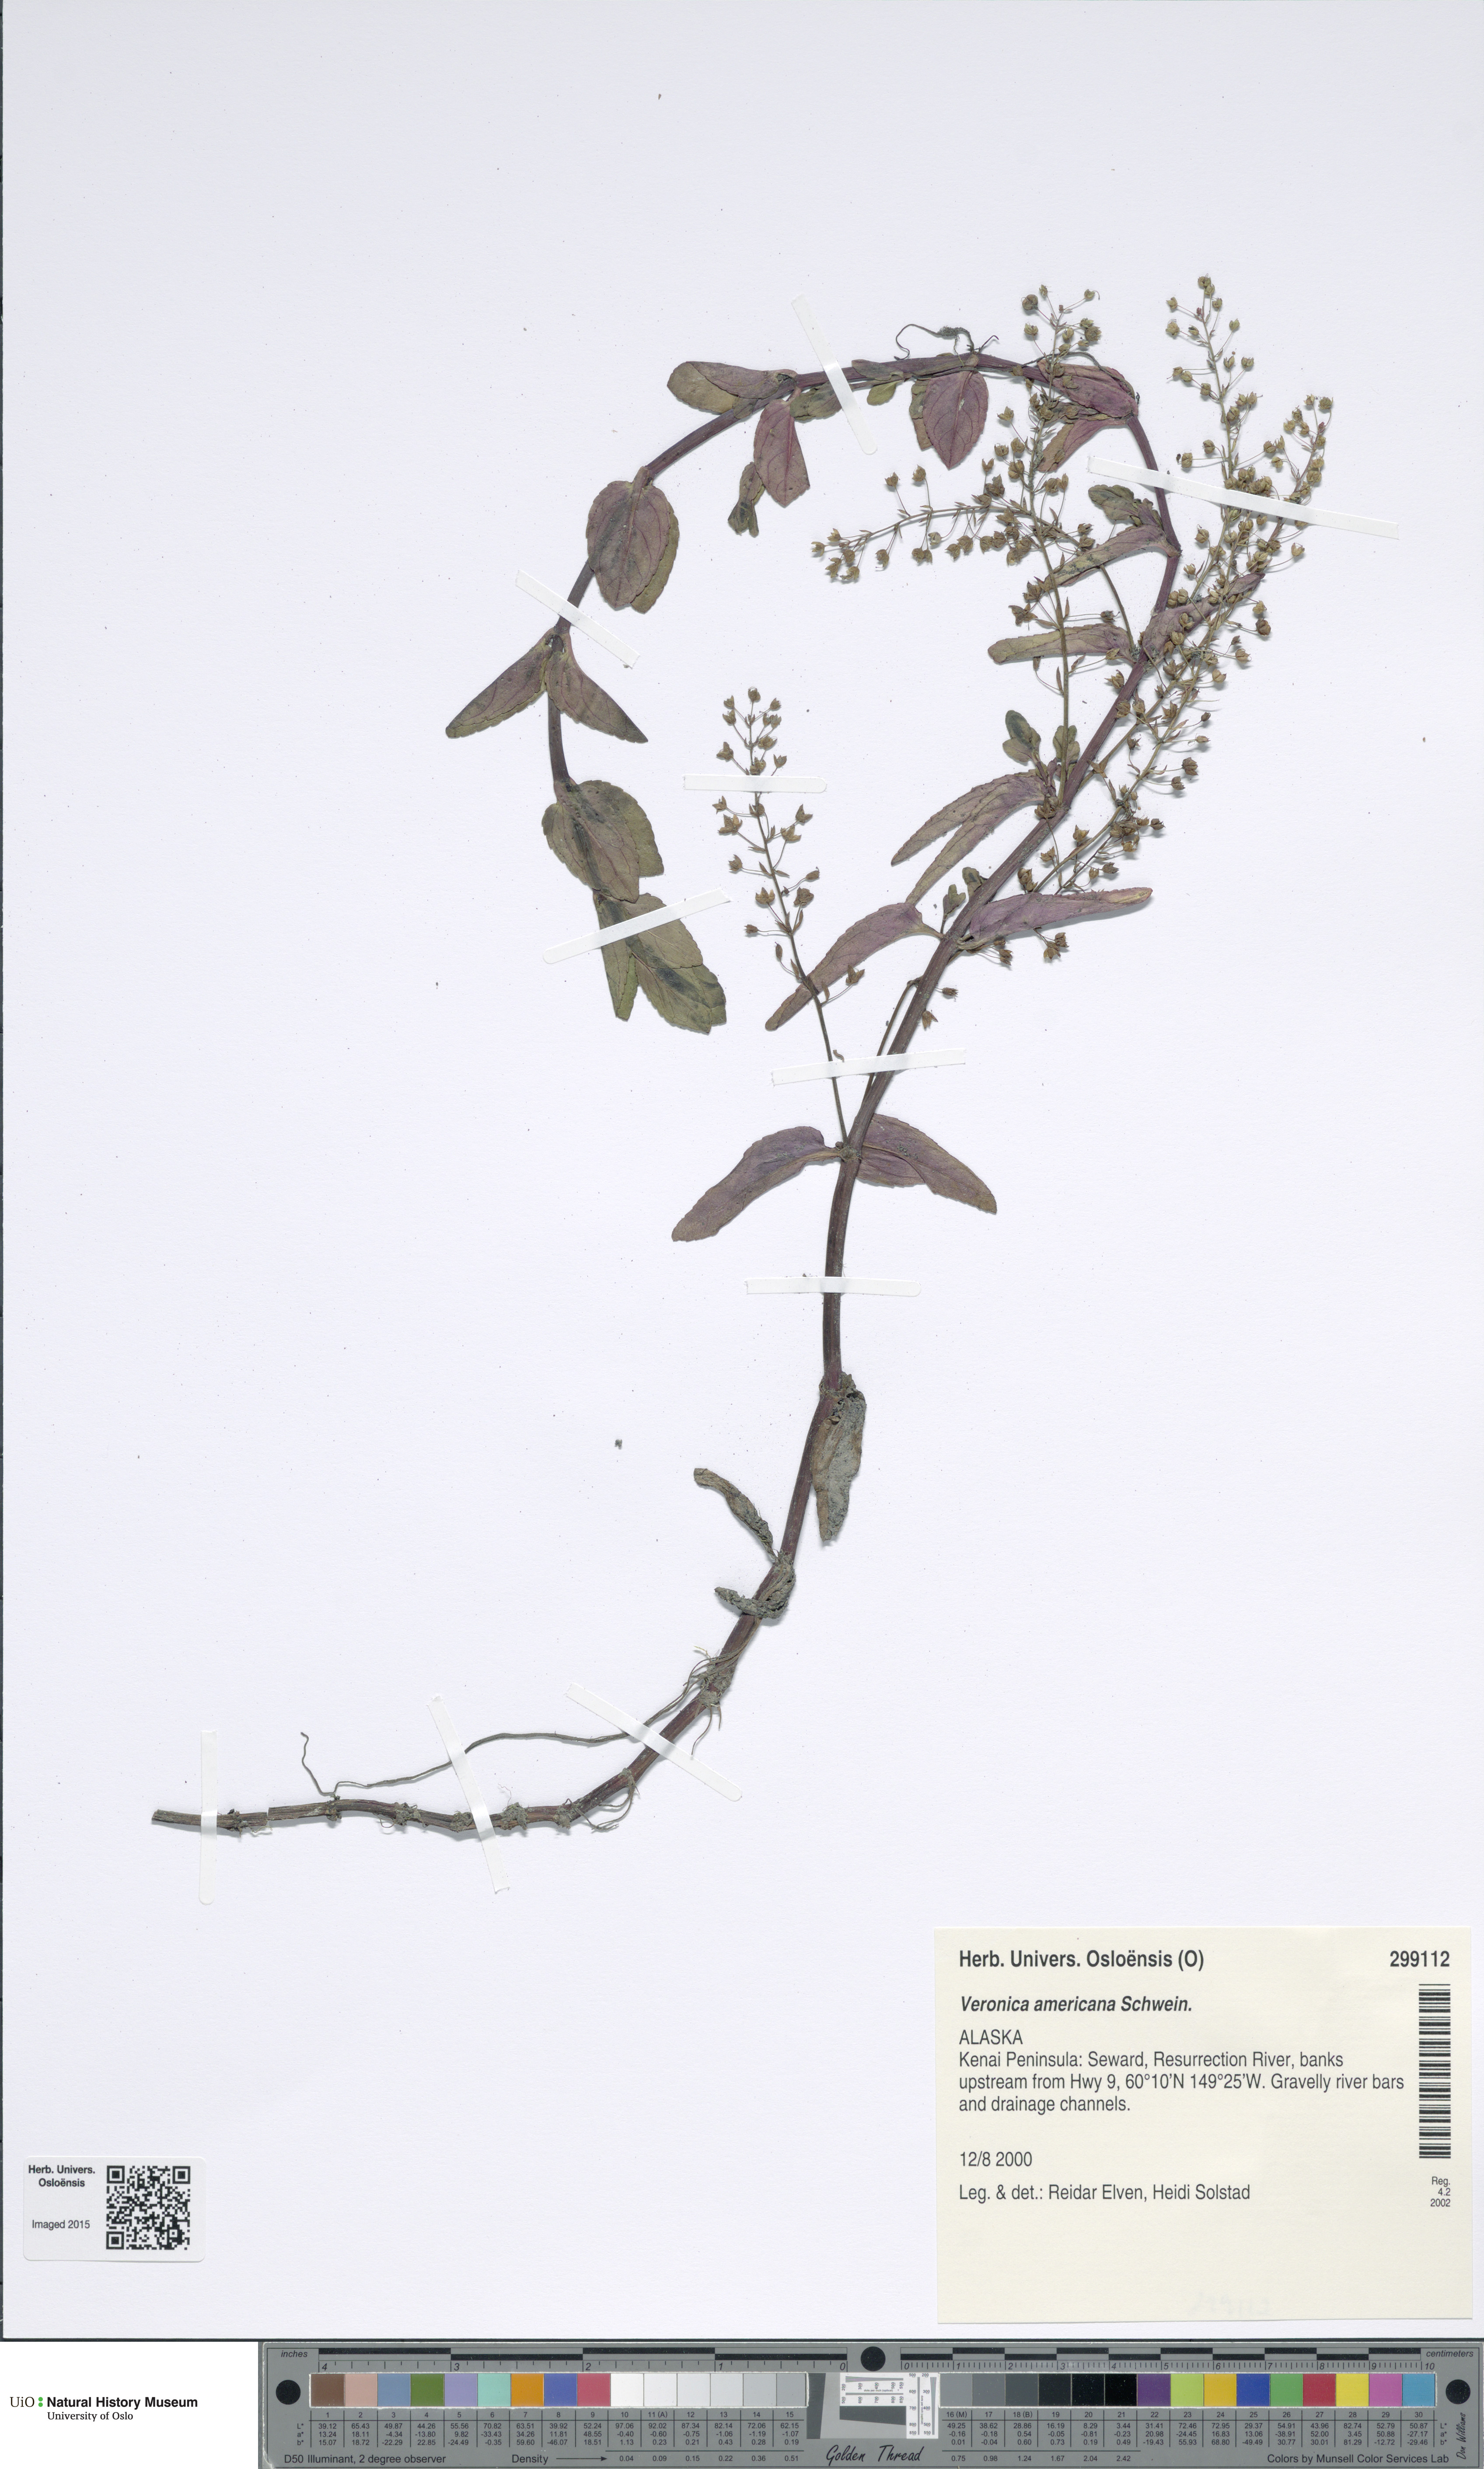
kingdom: Plantae
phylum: Tracheophyta
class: Magnoliopsida
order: Lamiales
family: Plantaginaceae
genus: Veronica
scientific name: Veronica americana
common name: American brooklime
